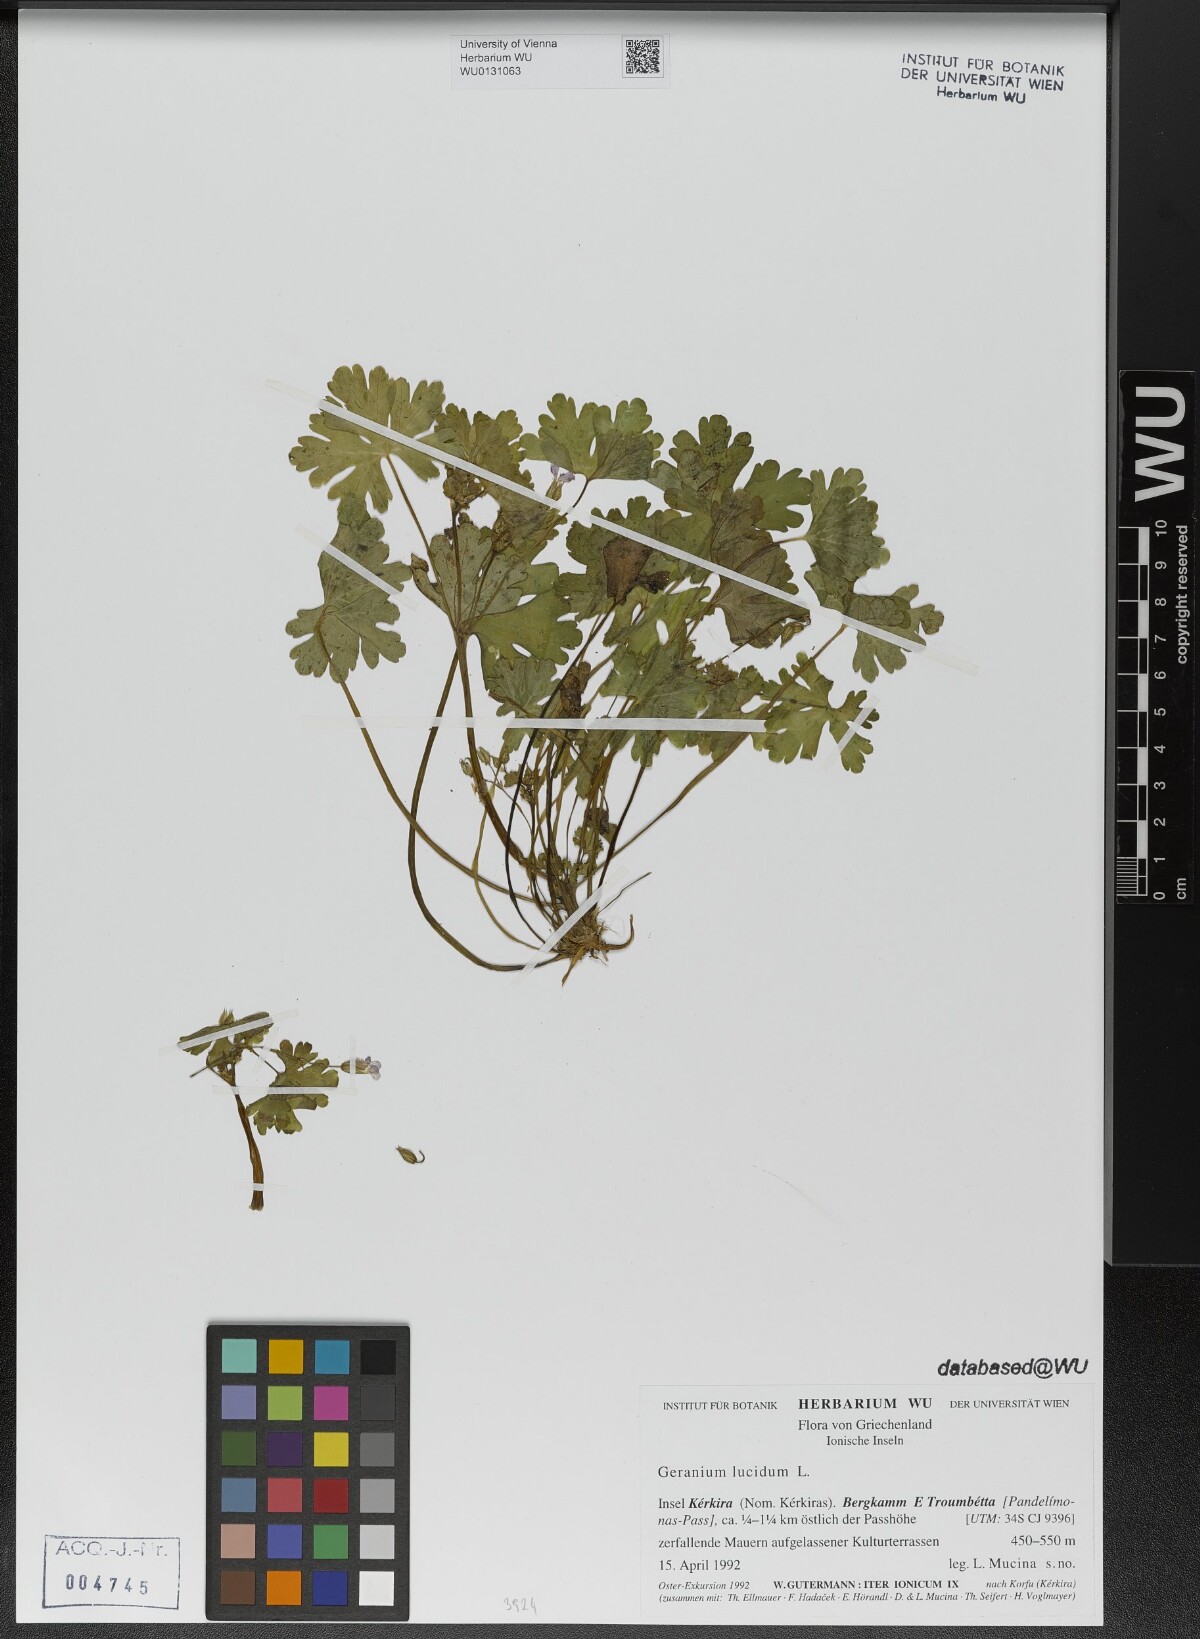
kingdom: Plantae
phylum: Tracheophyta
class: Magnoliopsida
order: Geraniales
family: Geraniaceae
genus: Geranium
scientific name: Geranium lucidum
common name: Shining crane's-bill
